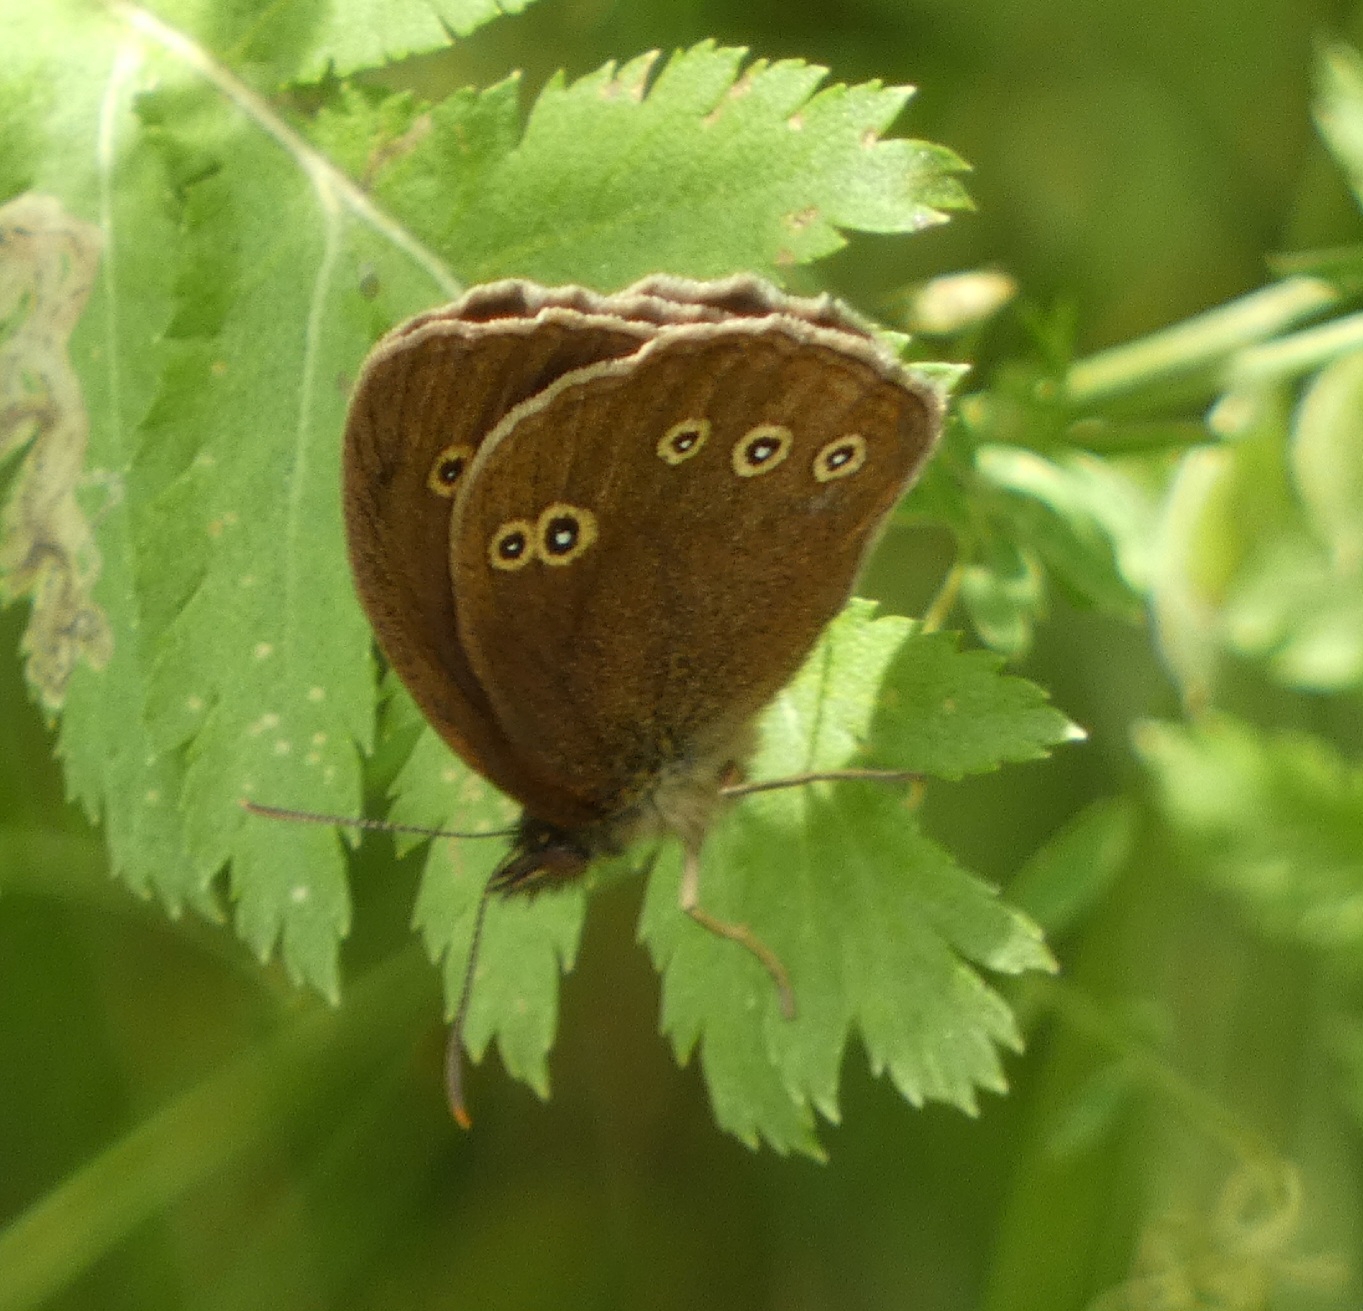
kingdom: Animalia
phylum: Arthropoda
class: Insecta
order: Lepidoptera
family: Nymphalidae
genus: Aphantopus
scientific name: Aphantopus hyperantus
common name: Engrandøje
